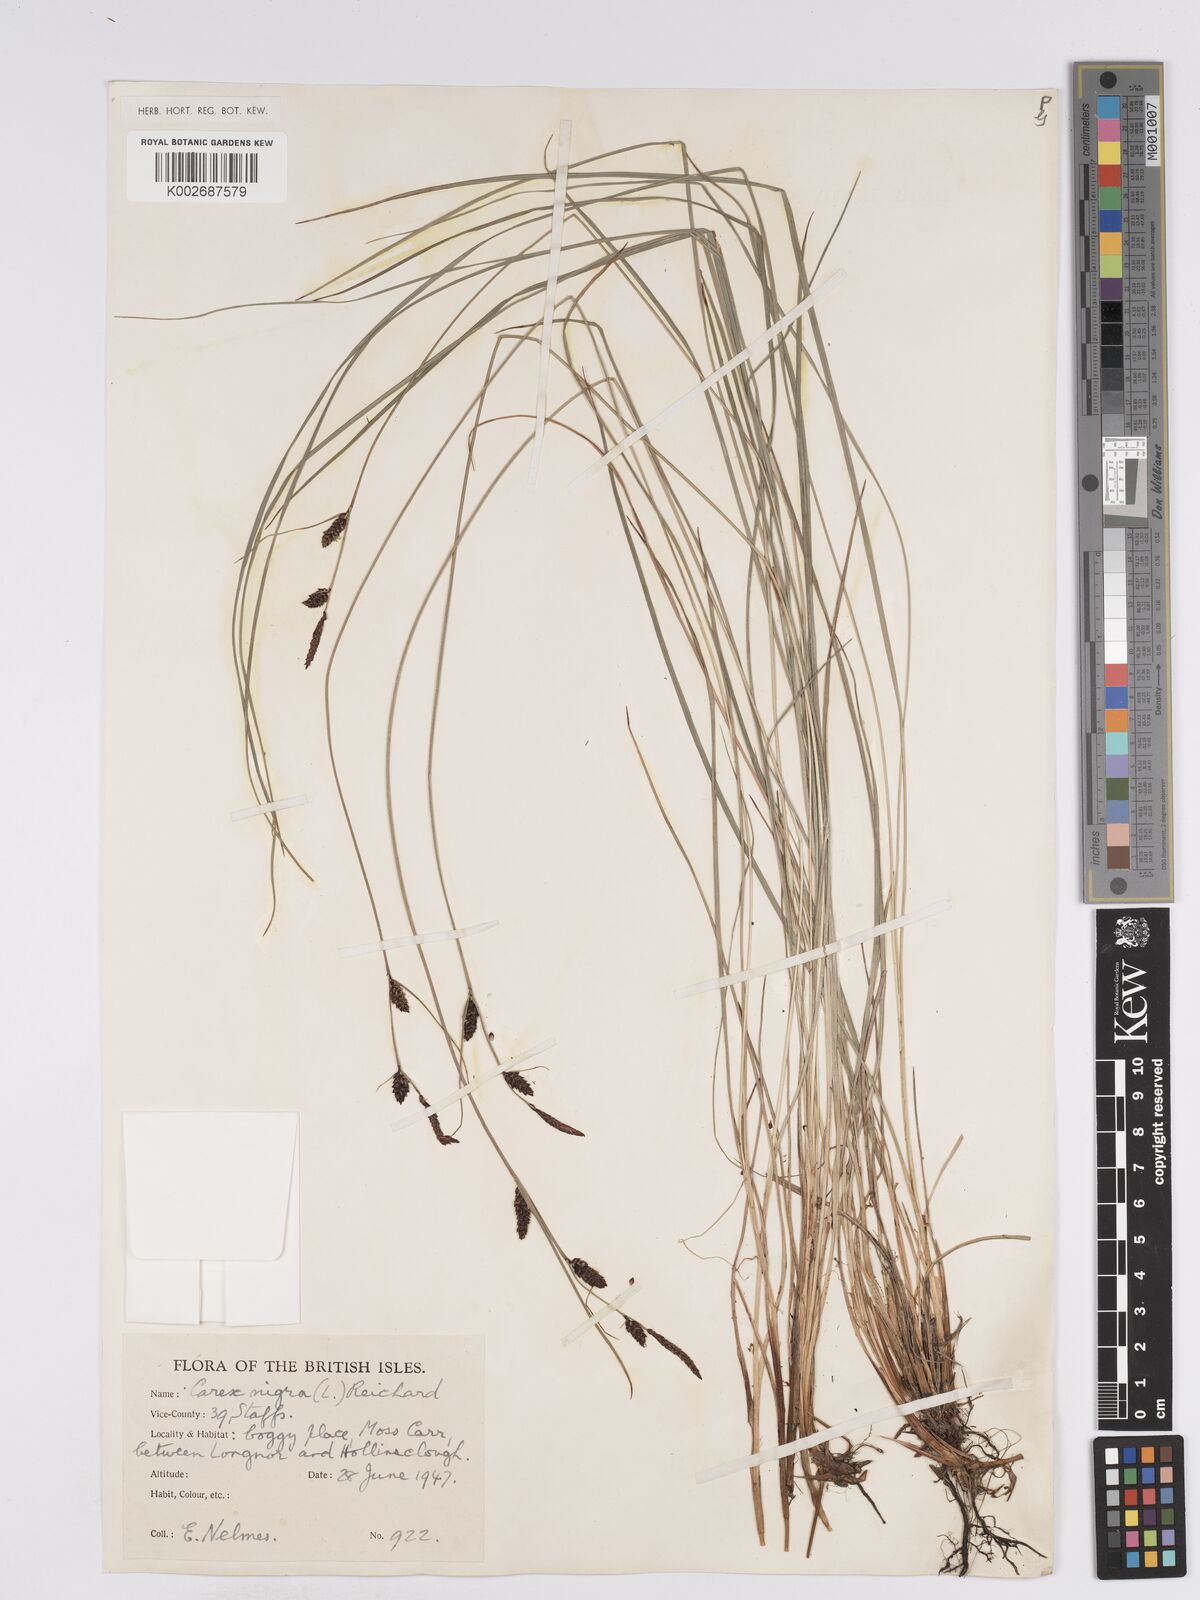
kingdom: Plantae
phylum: Tracheophyta
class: Liliopsida
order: Poales
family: Cyperaceae
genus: Carex
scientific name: Carex nigra
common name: Common sedge
